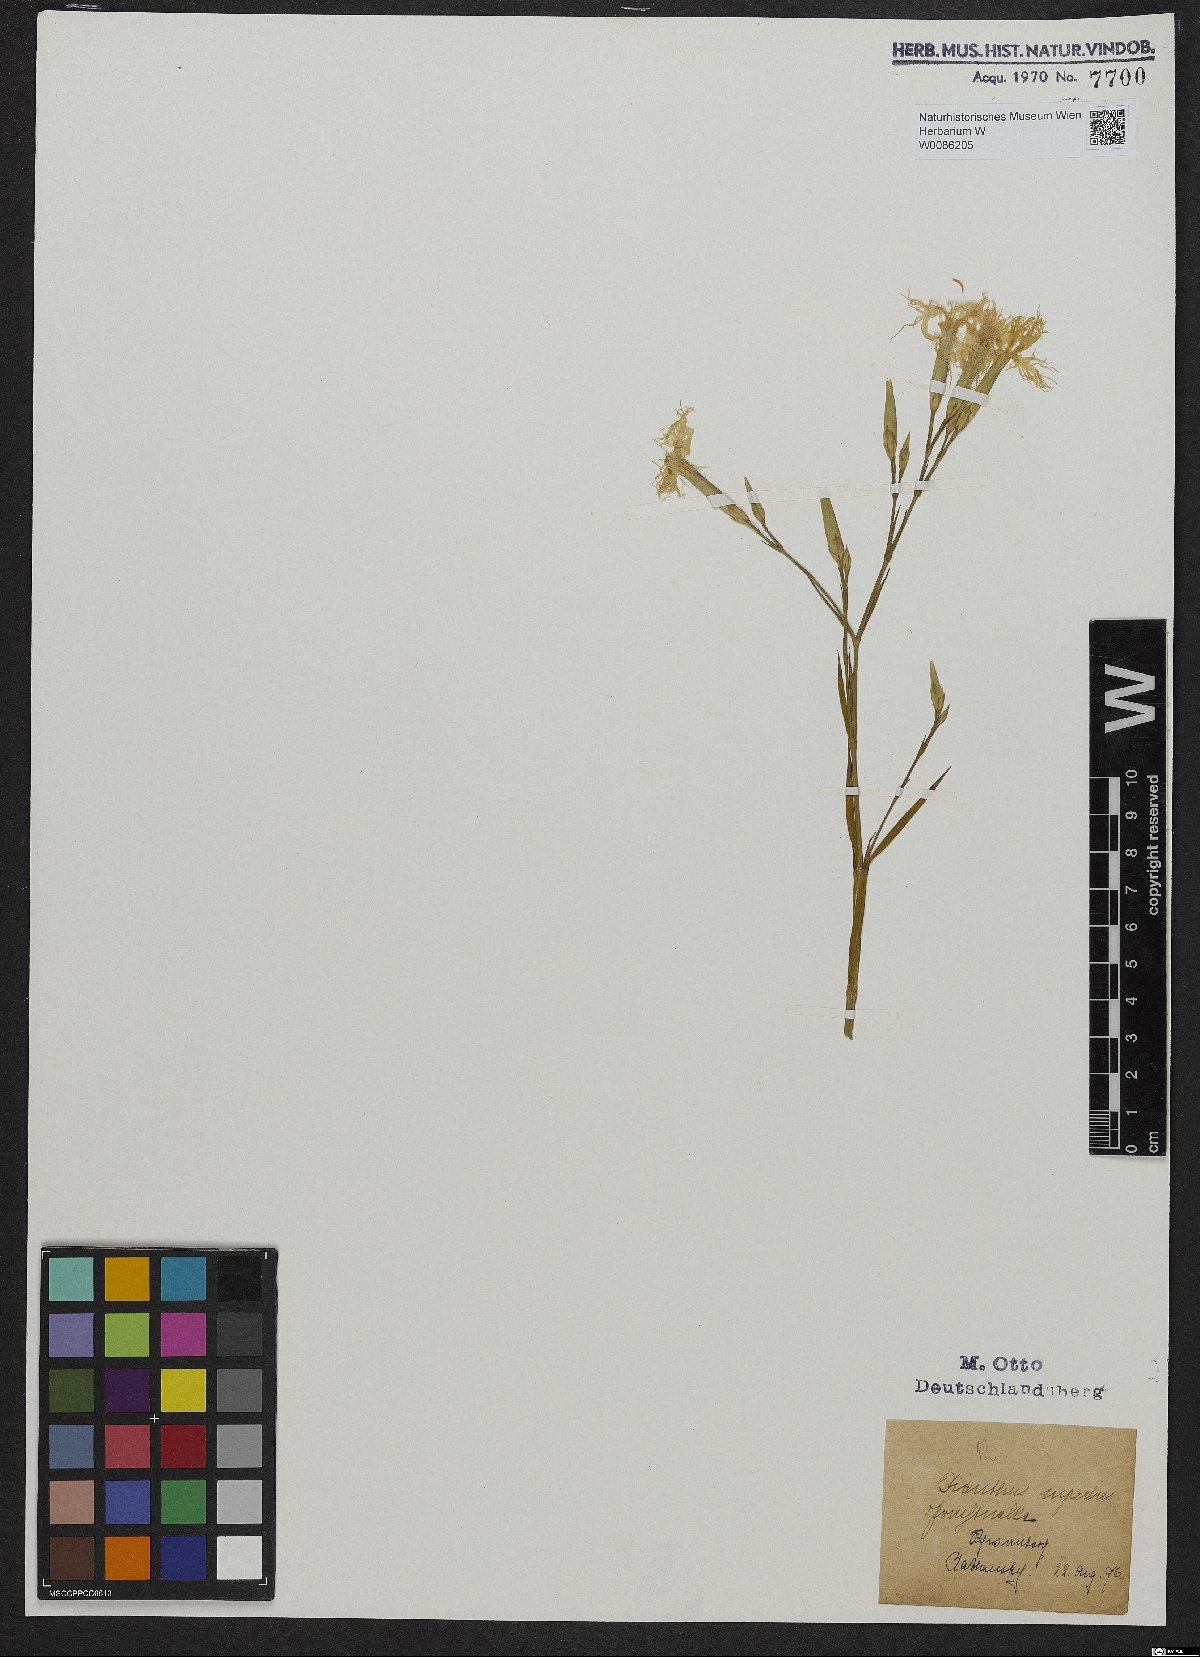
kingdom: Plantae
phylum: Tracheophyta
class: Magnoliopsida
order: Caryophyllales
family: Caryophyllaceae
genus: Dianthus
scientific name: Dianthus superbus
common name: Fringed pink
